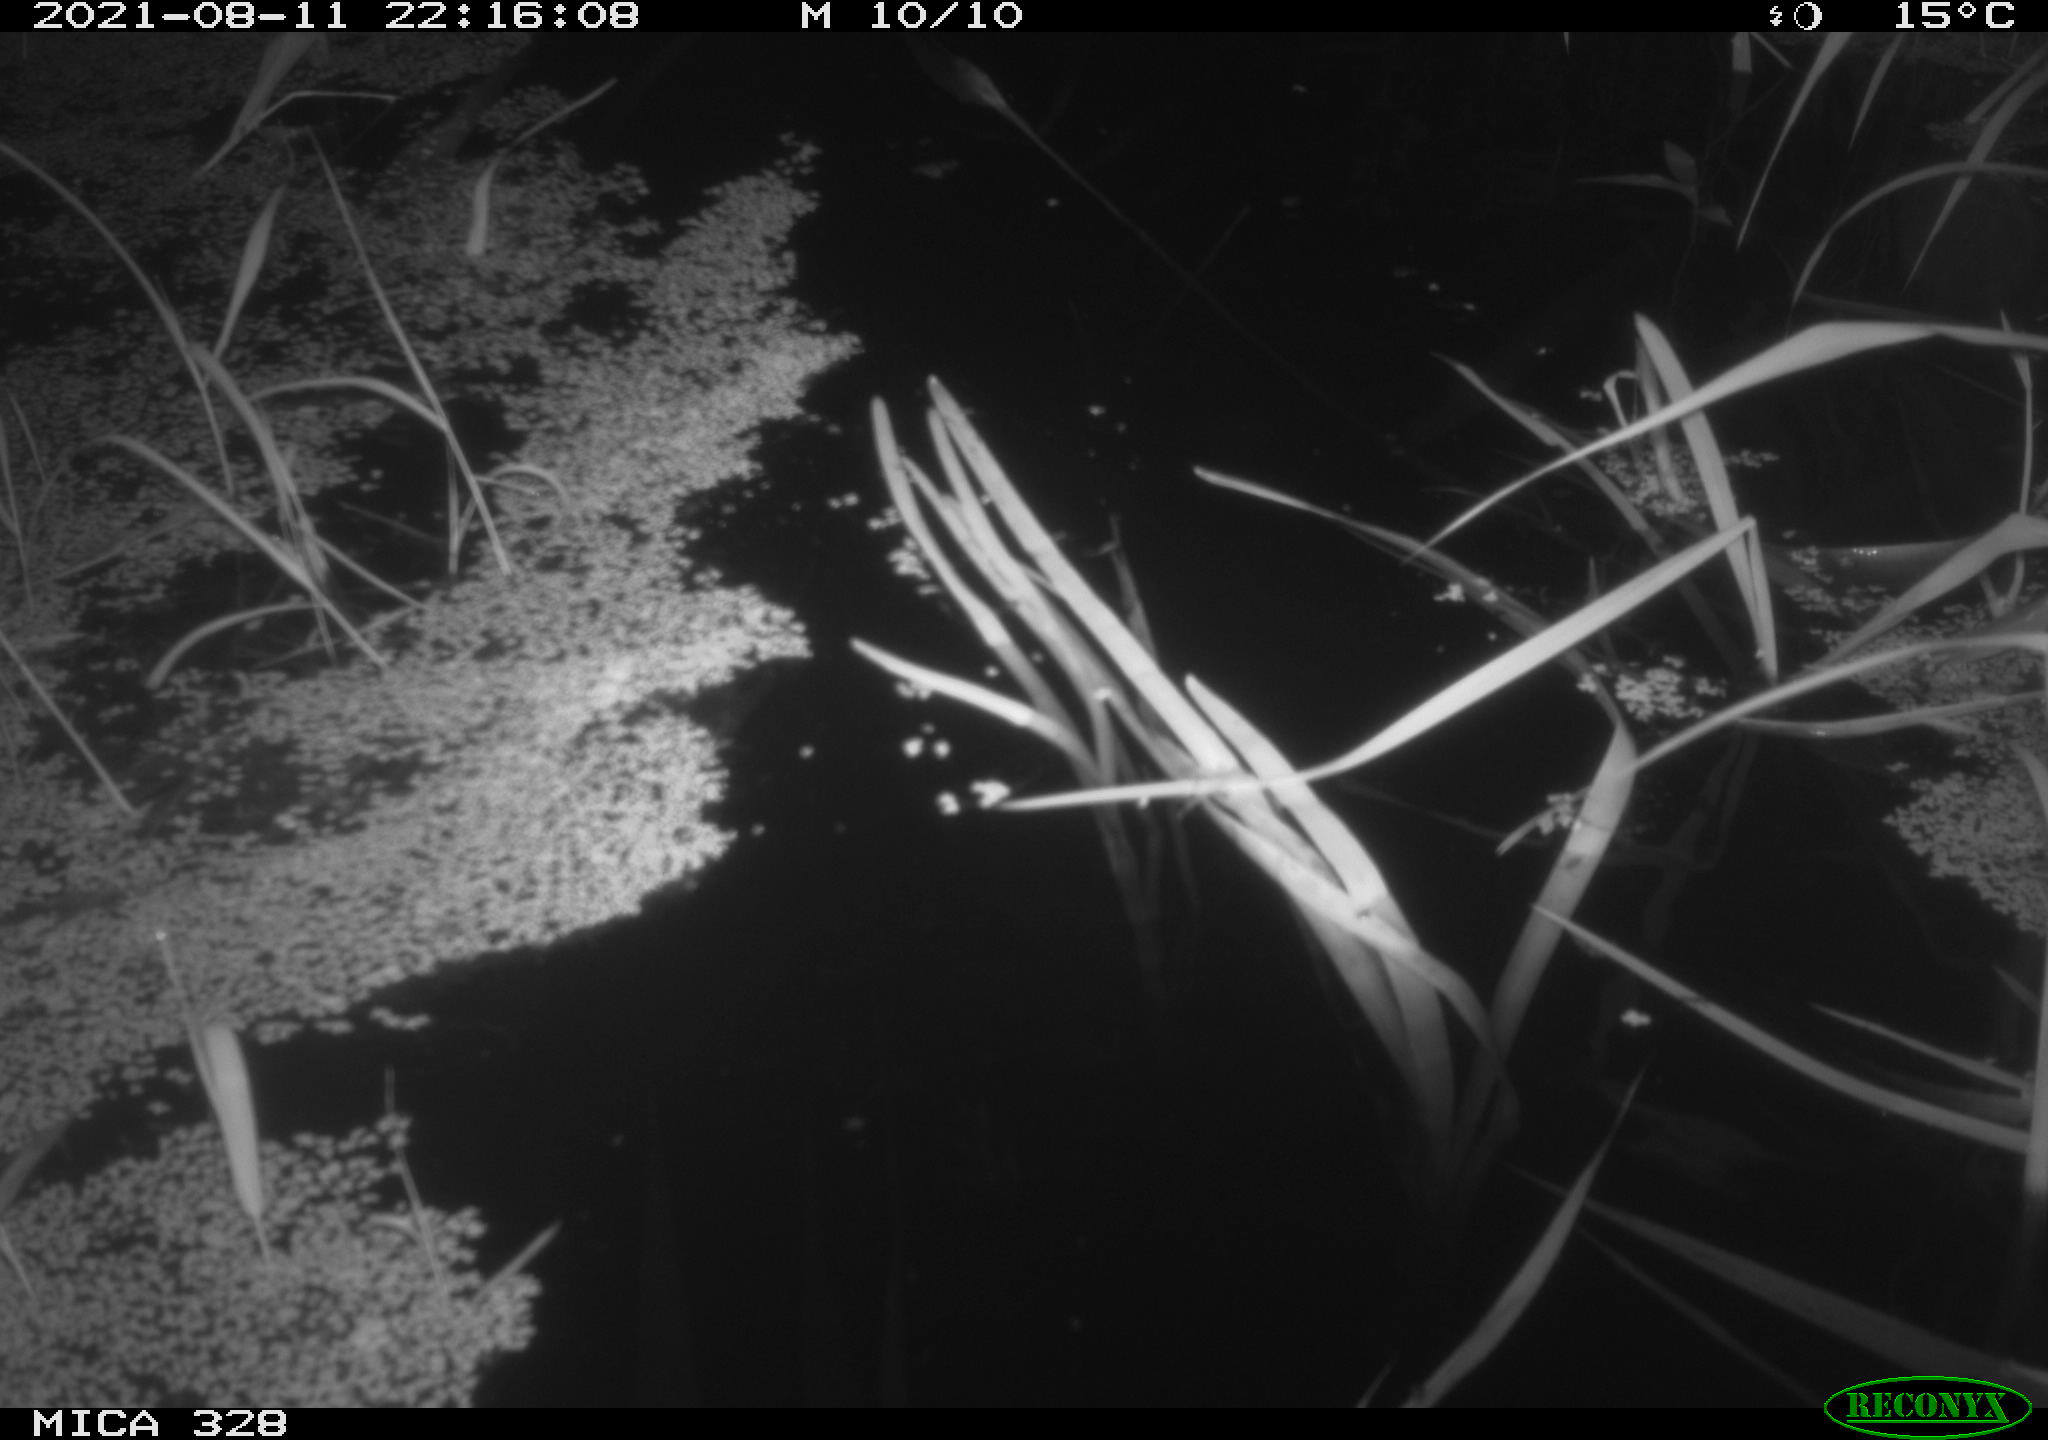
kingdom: Animalia
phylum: Chordata
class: Mammalia
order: Rodentia
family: Cricetidae
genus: Ondatra
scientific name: Ondatra zibethicus
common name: Muskrat
